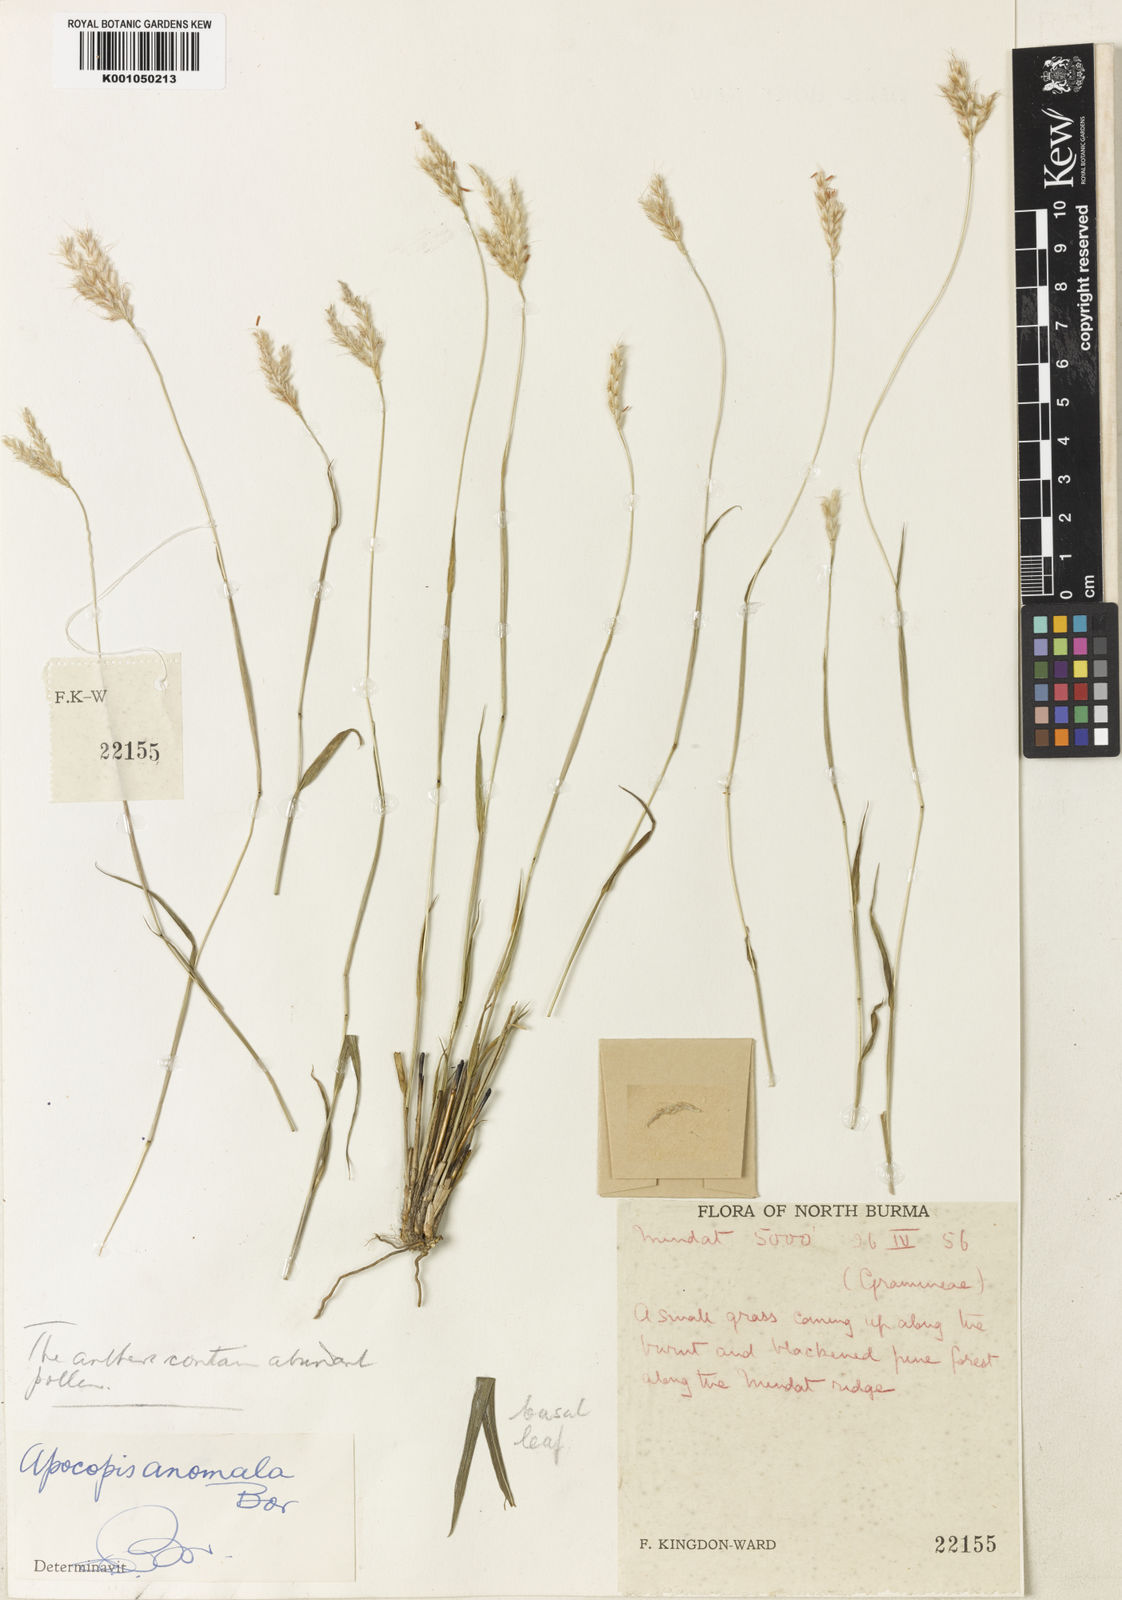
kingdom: Plantae
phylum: Tracheophyta
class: Liliopsida
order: Poales
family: Poaceae
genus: Apocopis
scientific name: Apocopis anomalus
